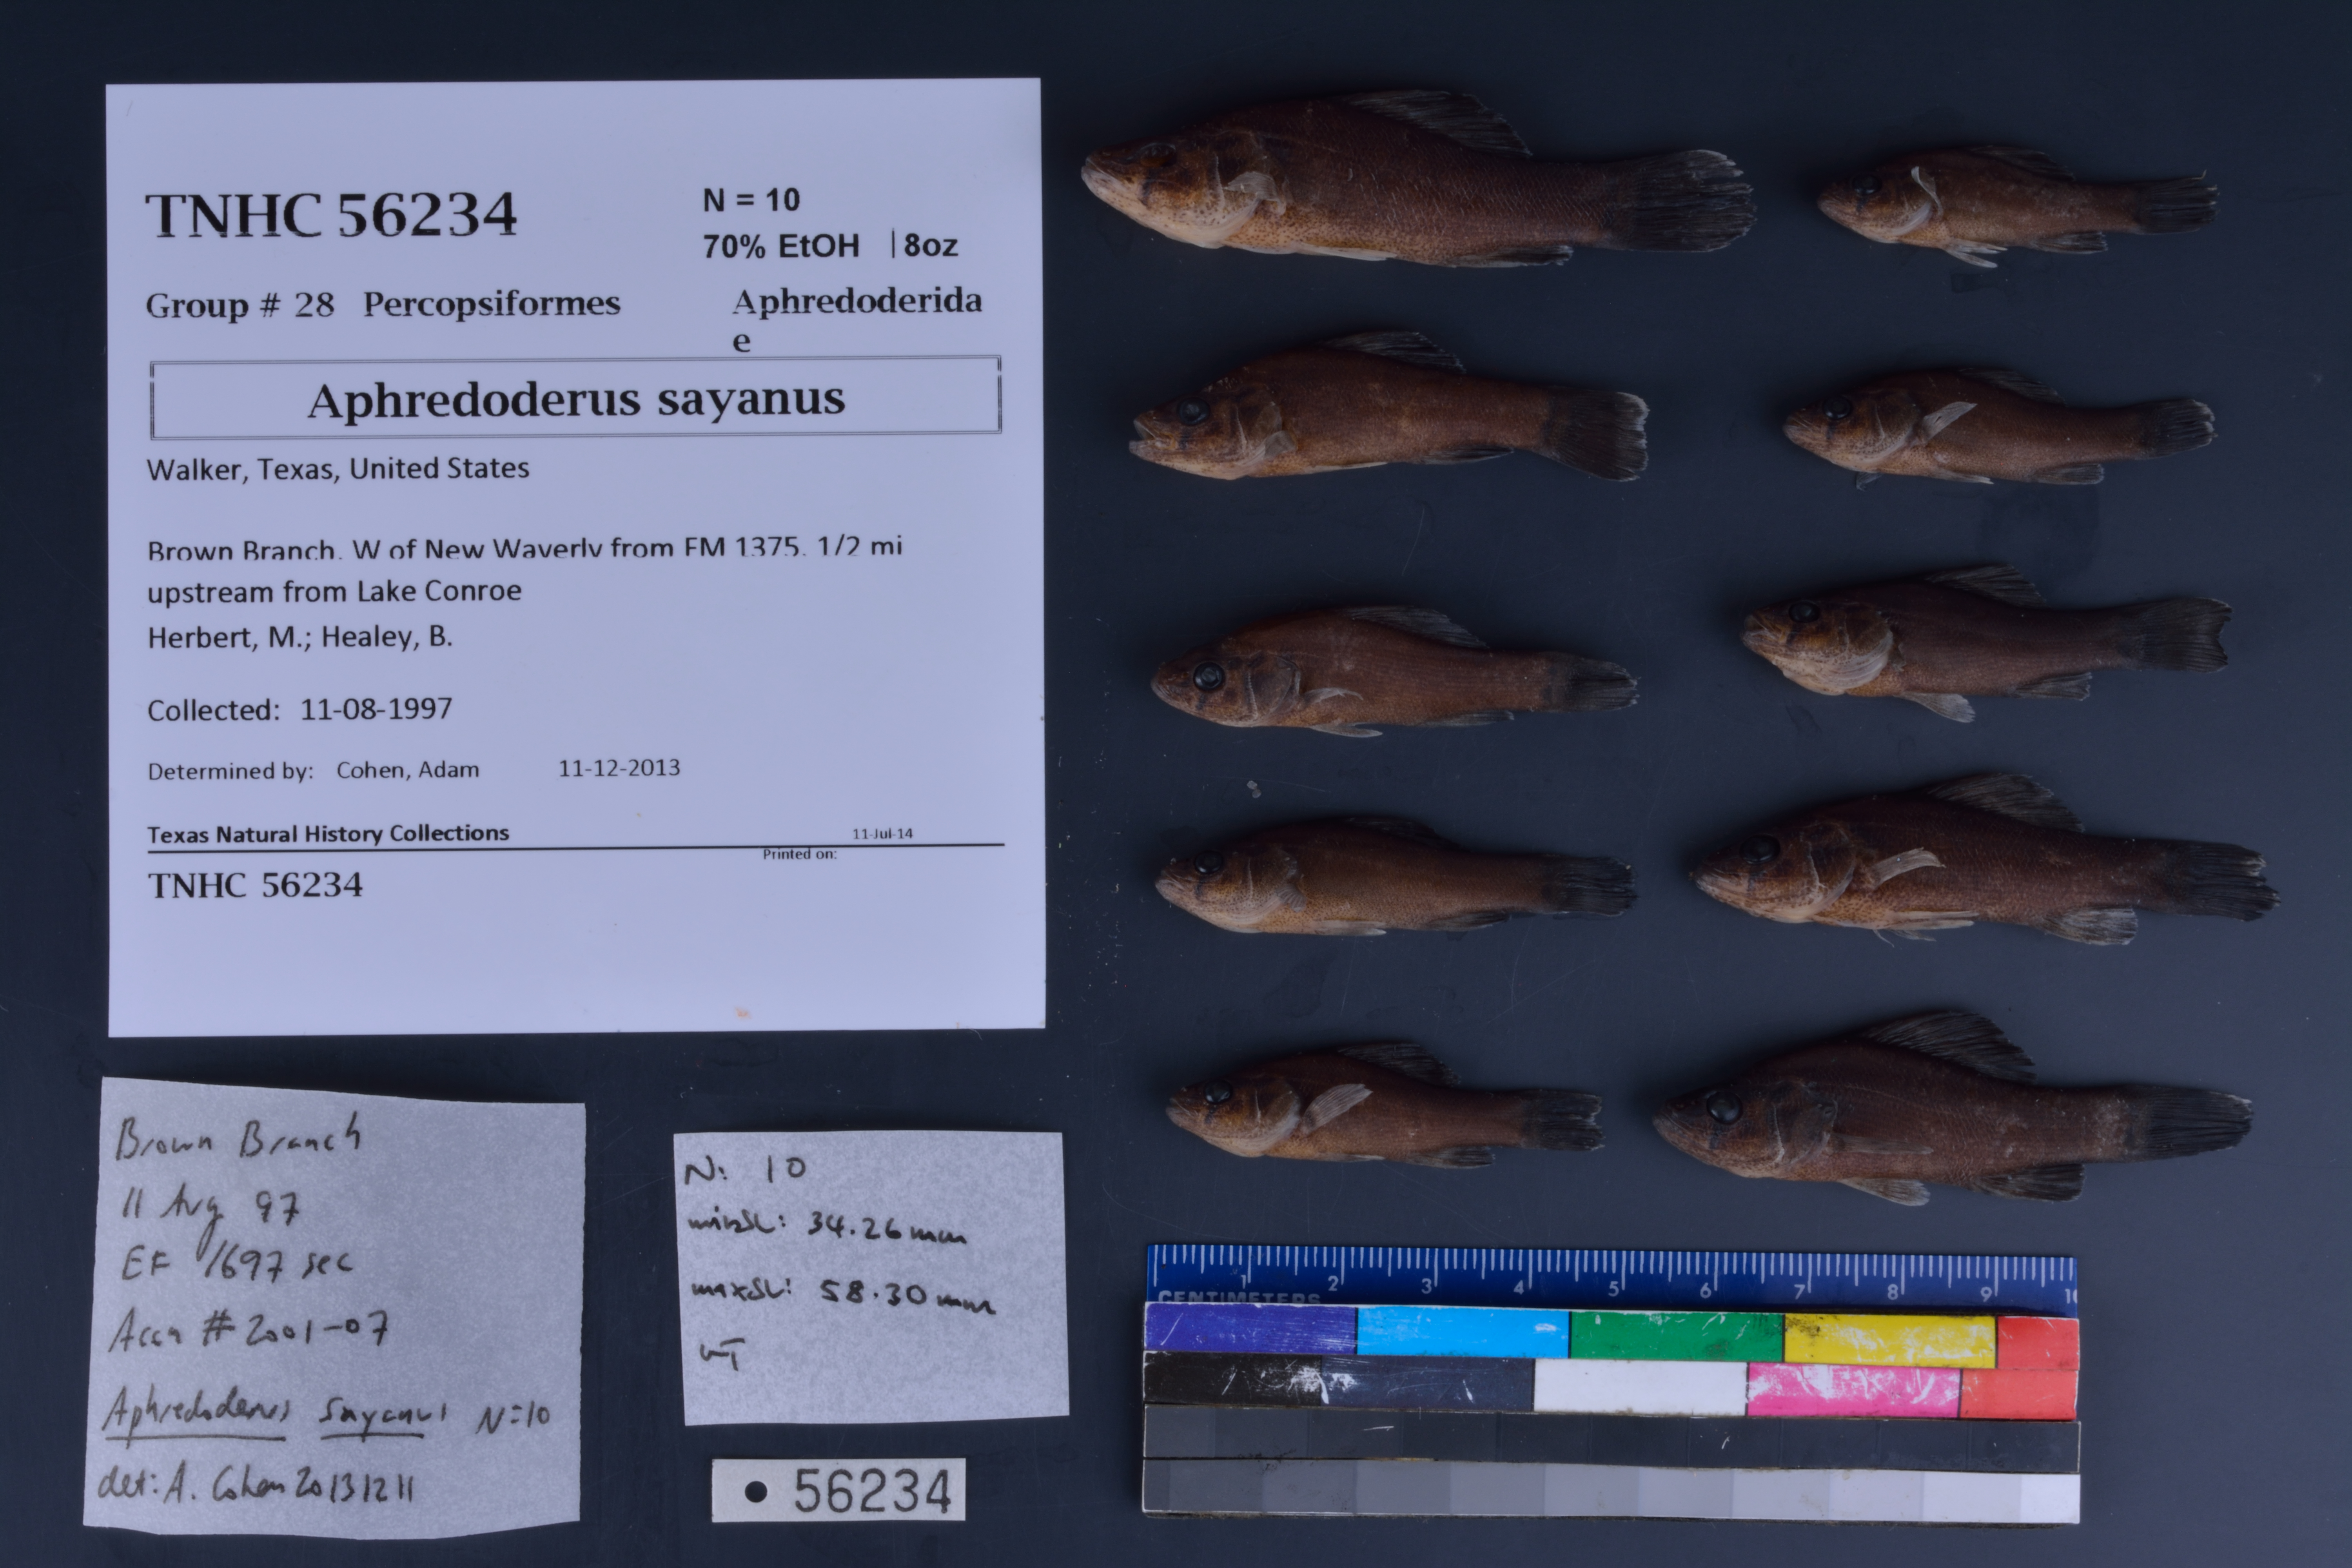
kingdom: Animalia
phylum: Chordata
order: Percopsiformes
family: Aphredoderidae
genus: Aphredoderus
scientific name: Aphredoderus sayanus
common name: Pirate perch
